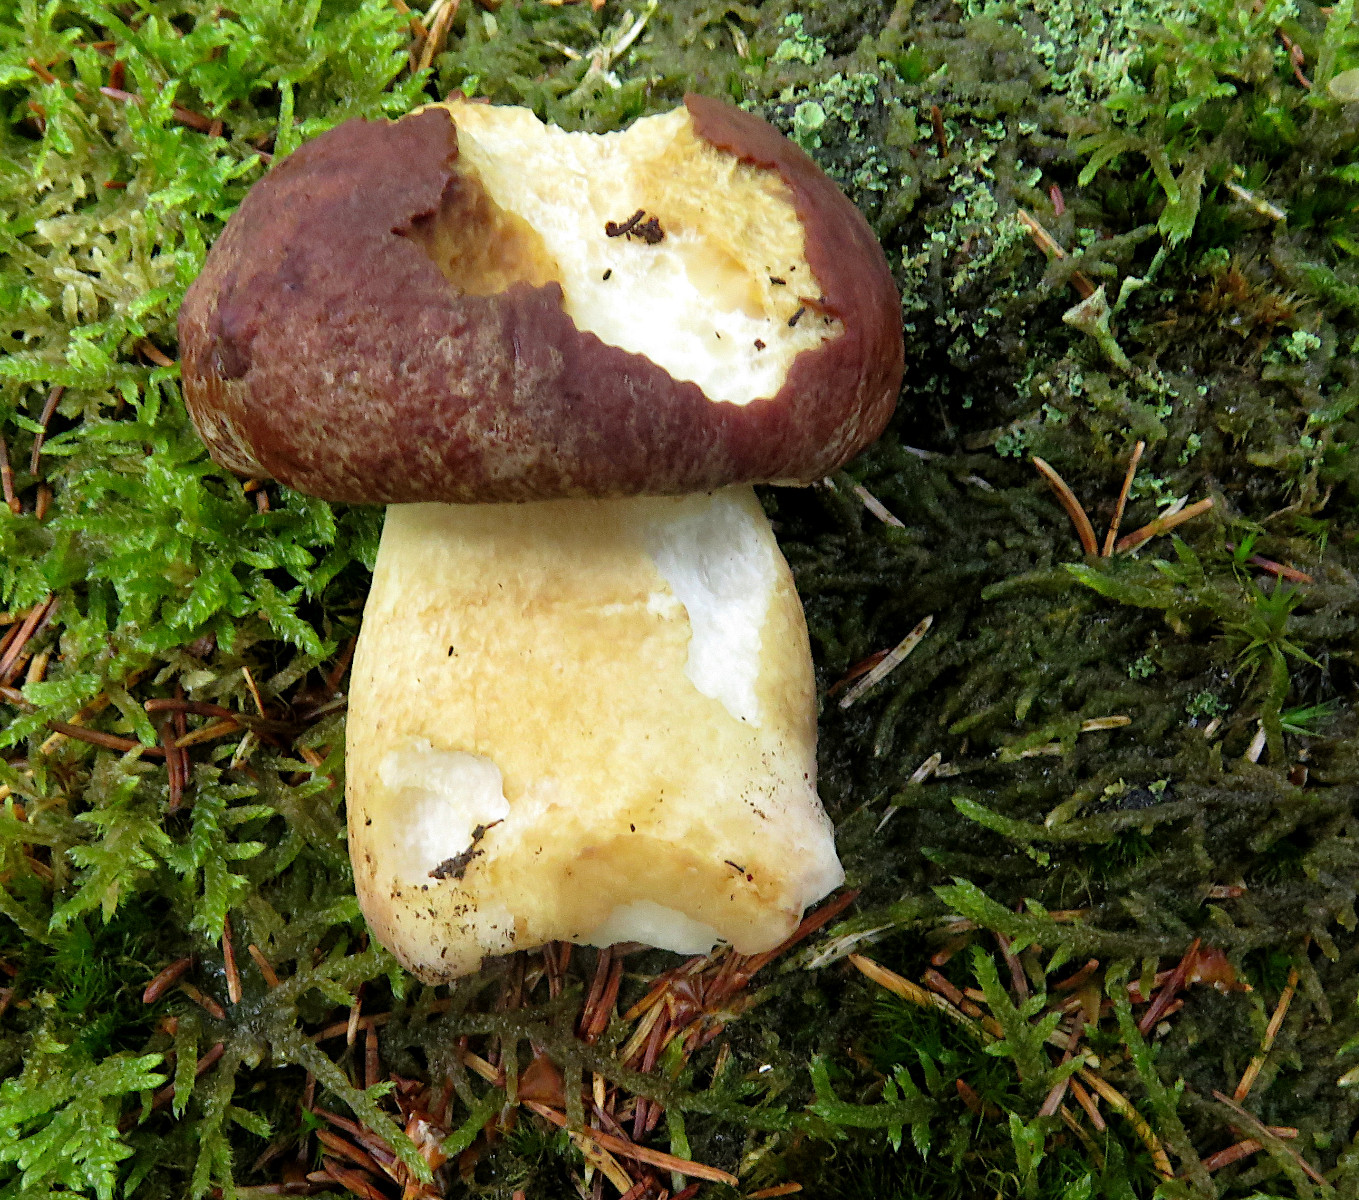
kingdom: Fungi
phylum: Basidiomycota
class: Agaricomycetes
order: Boletales
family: Boletaceae
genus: Boletus
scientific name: Boletus pinophilus
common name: rødbrun rørhat
